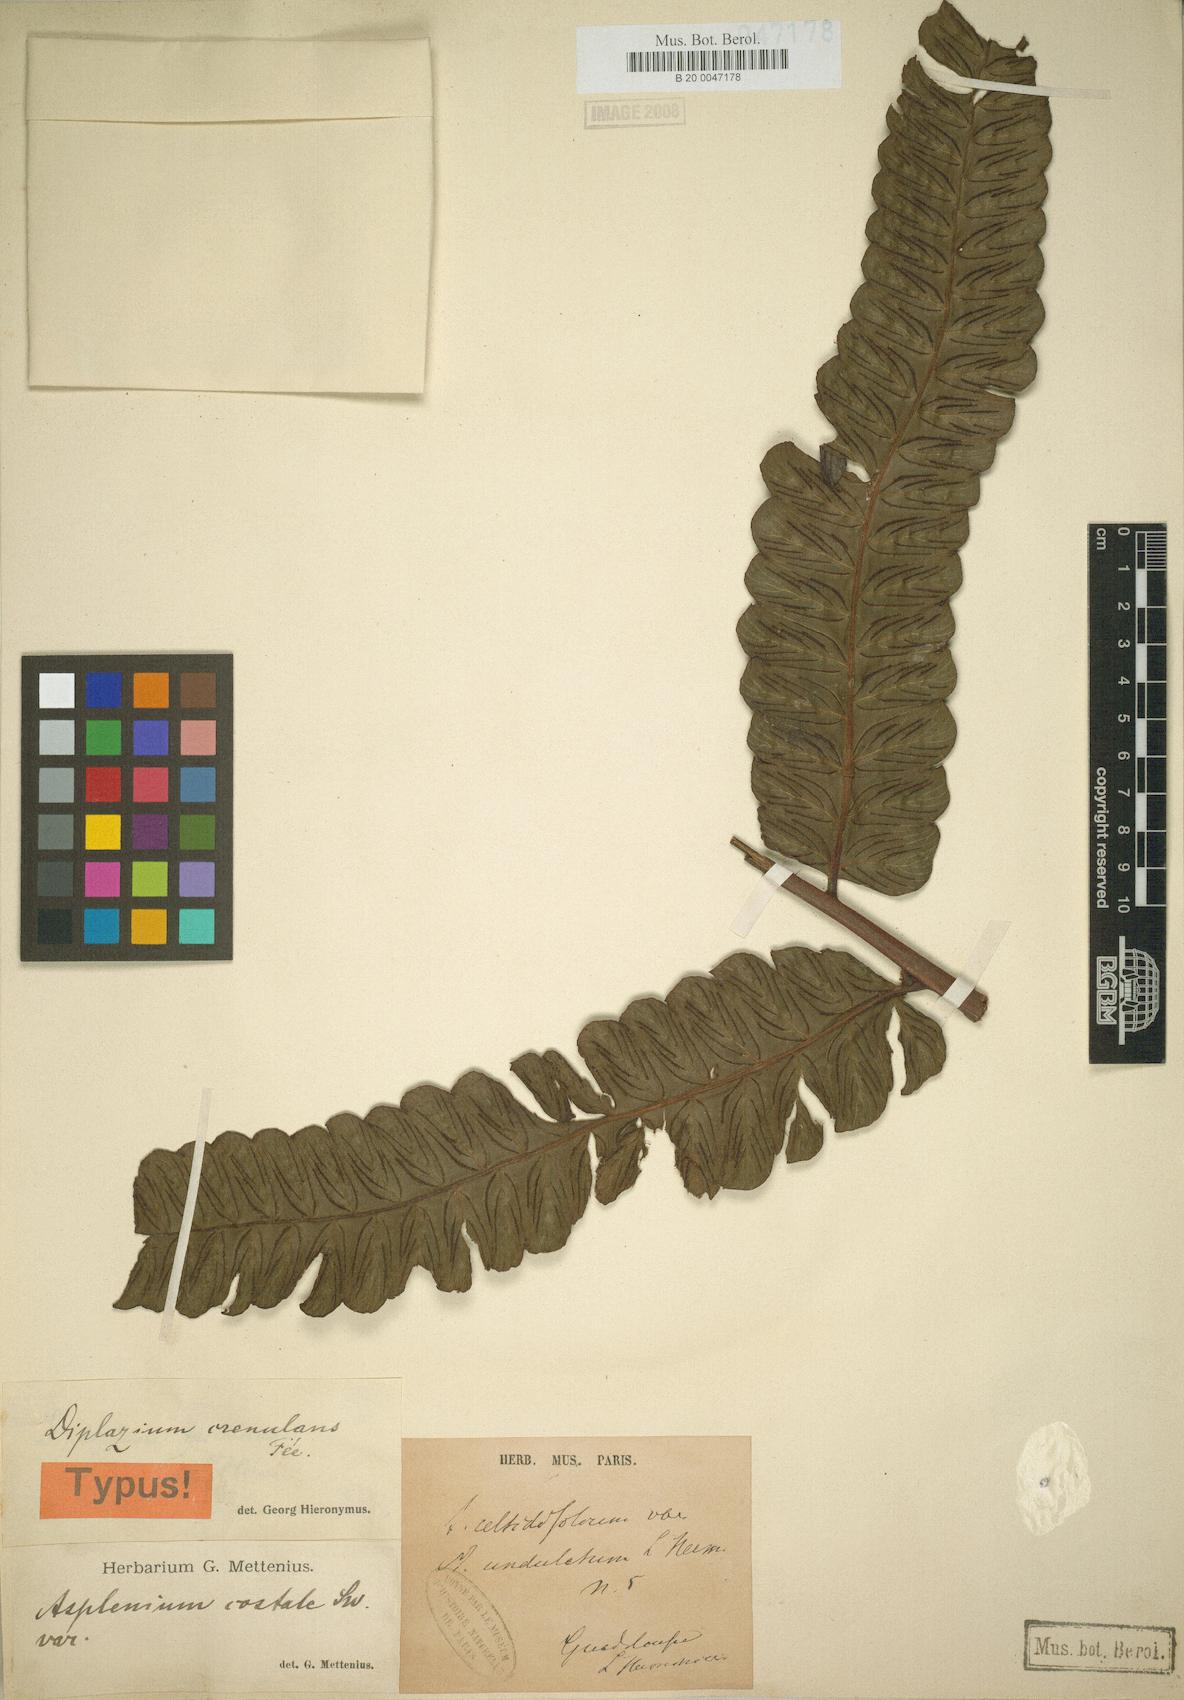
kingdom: Plantae
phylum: Tracheophyta
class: Polypodiopsida
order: Polypodiales
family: Athyriaceae
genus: Diplazium
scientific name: Diplazium celtidifolium
